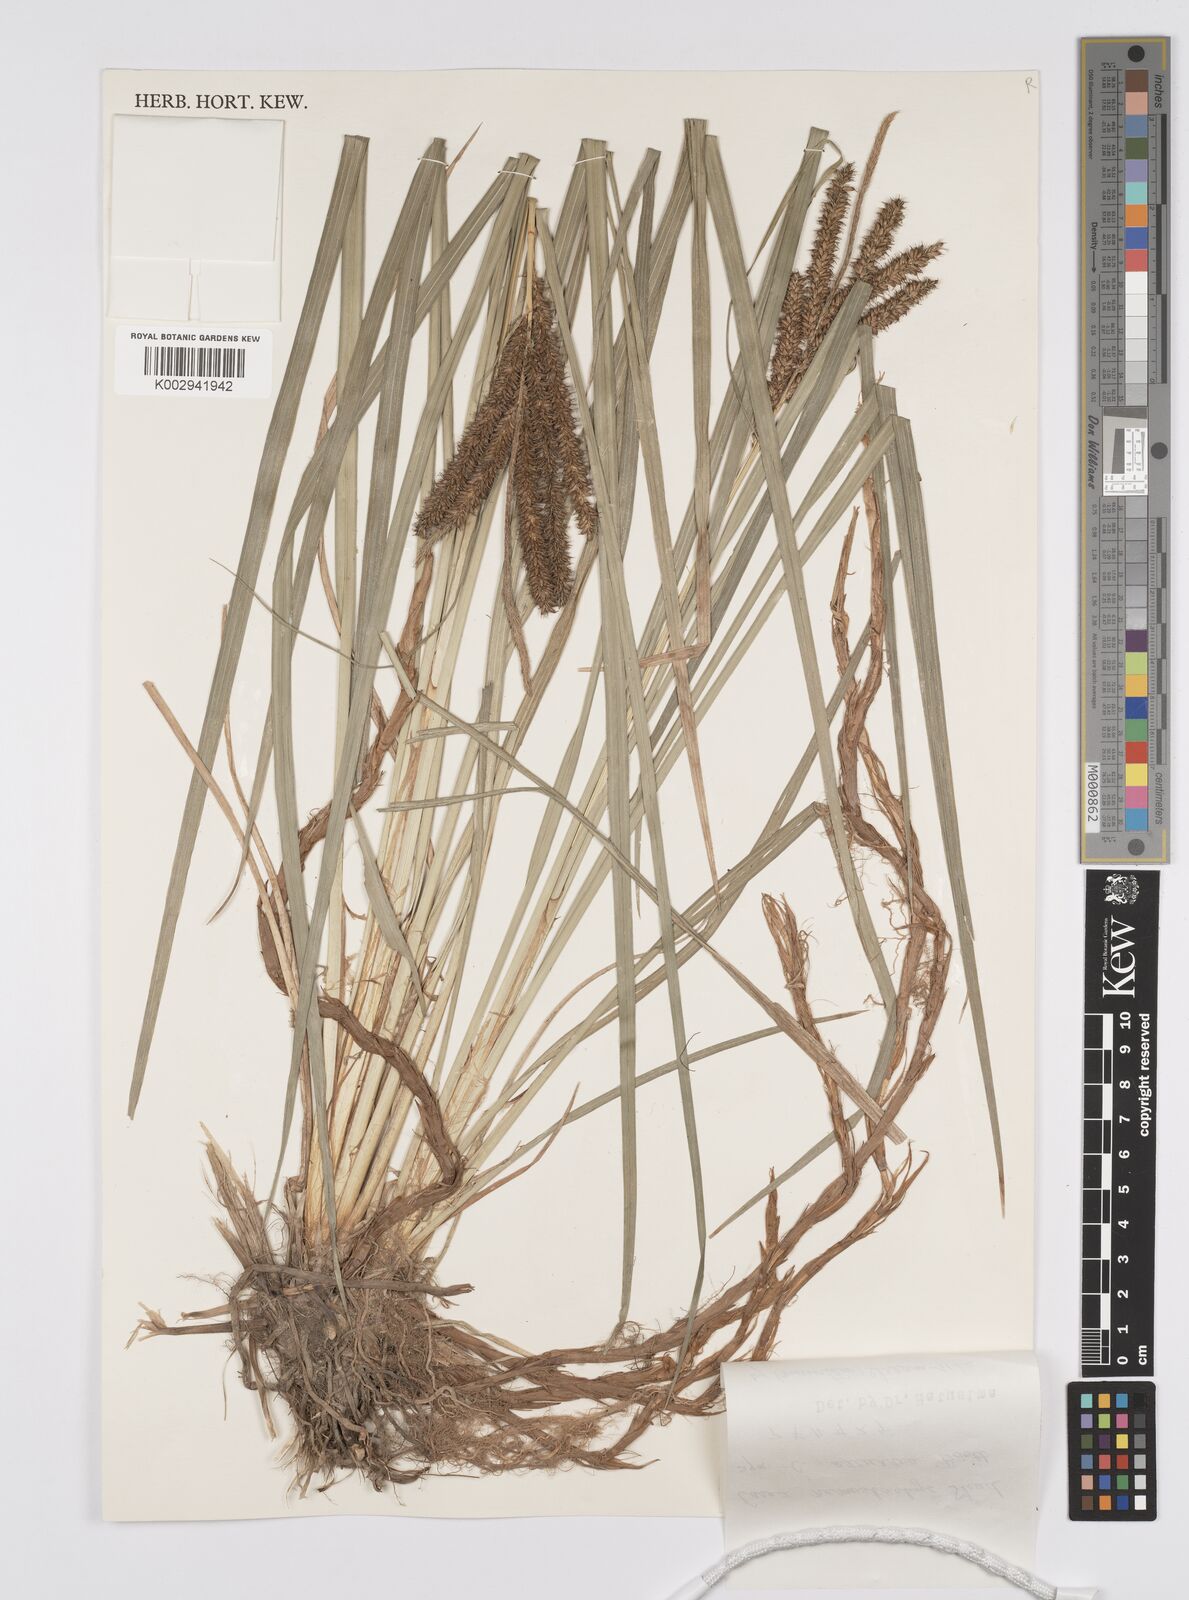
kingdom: Plantae
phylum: Tracheophyta
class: Liliopsida
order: Poales
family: Cyperaceae
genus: Carex
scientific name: Carex nemostachys
